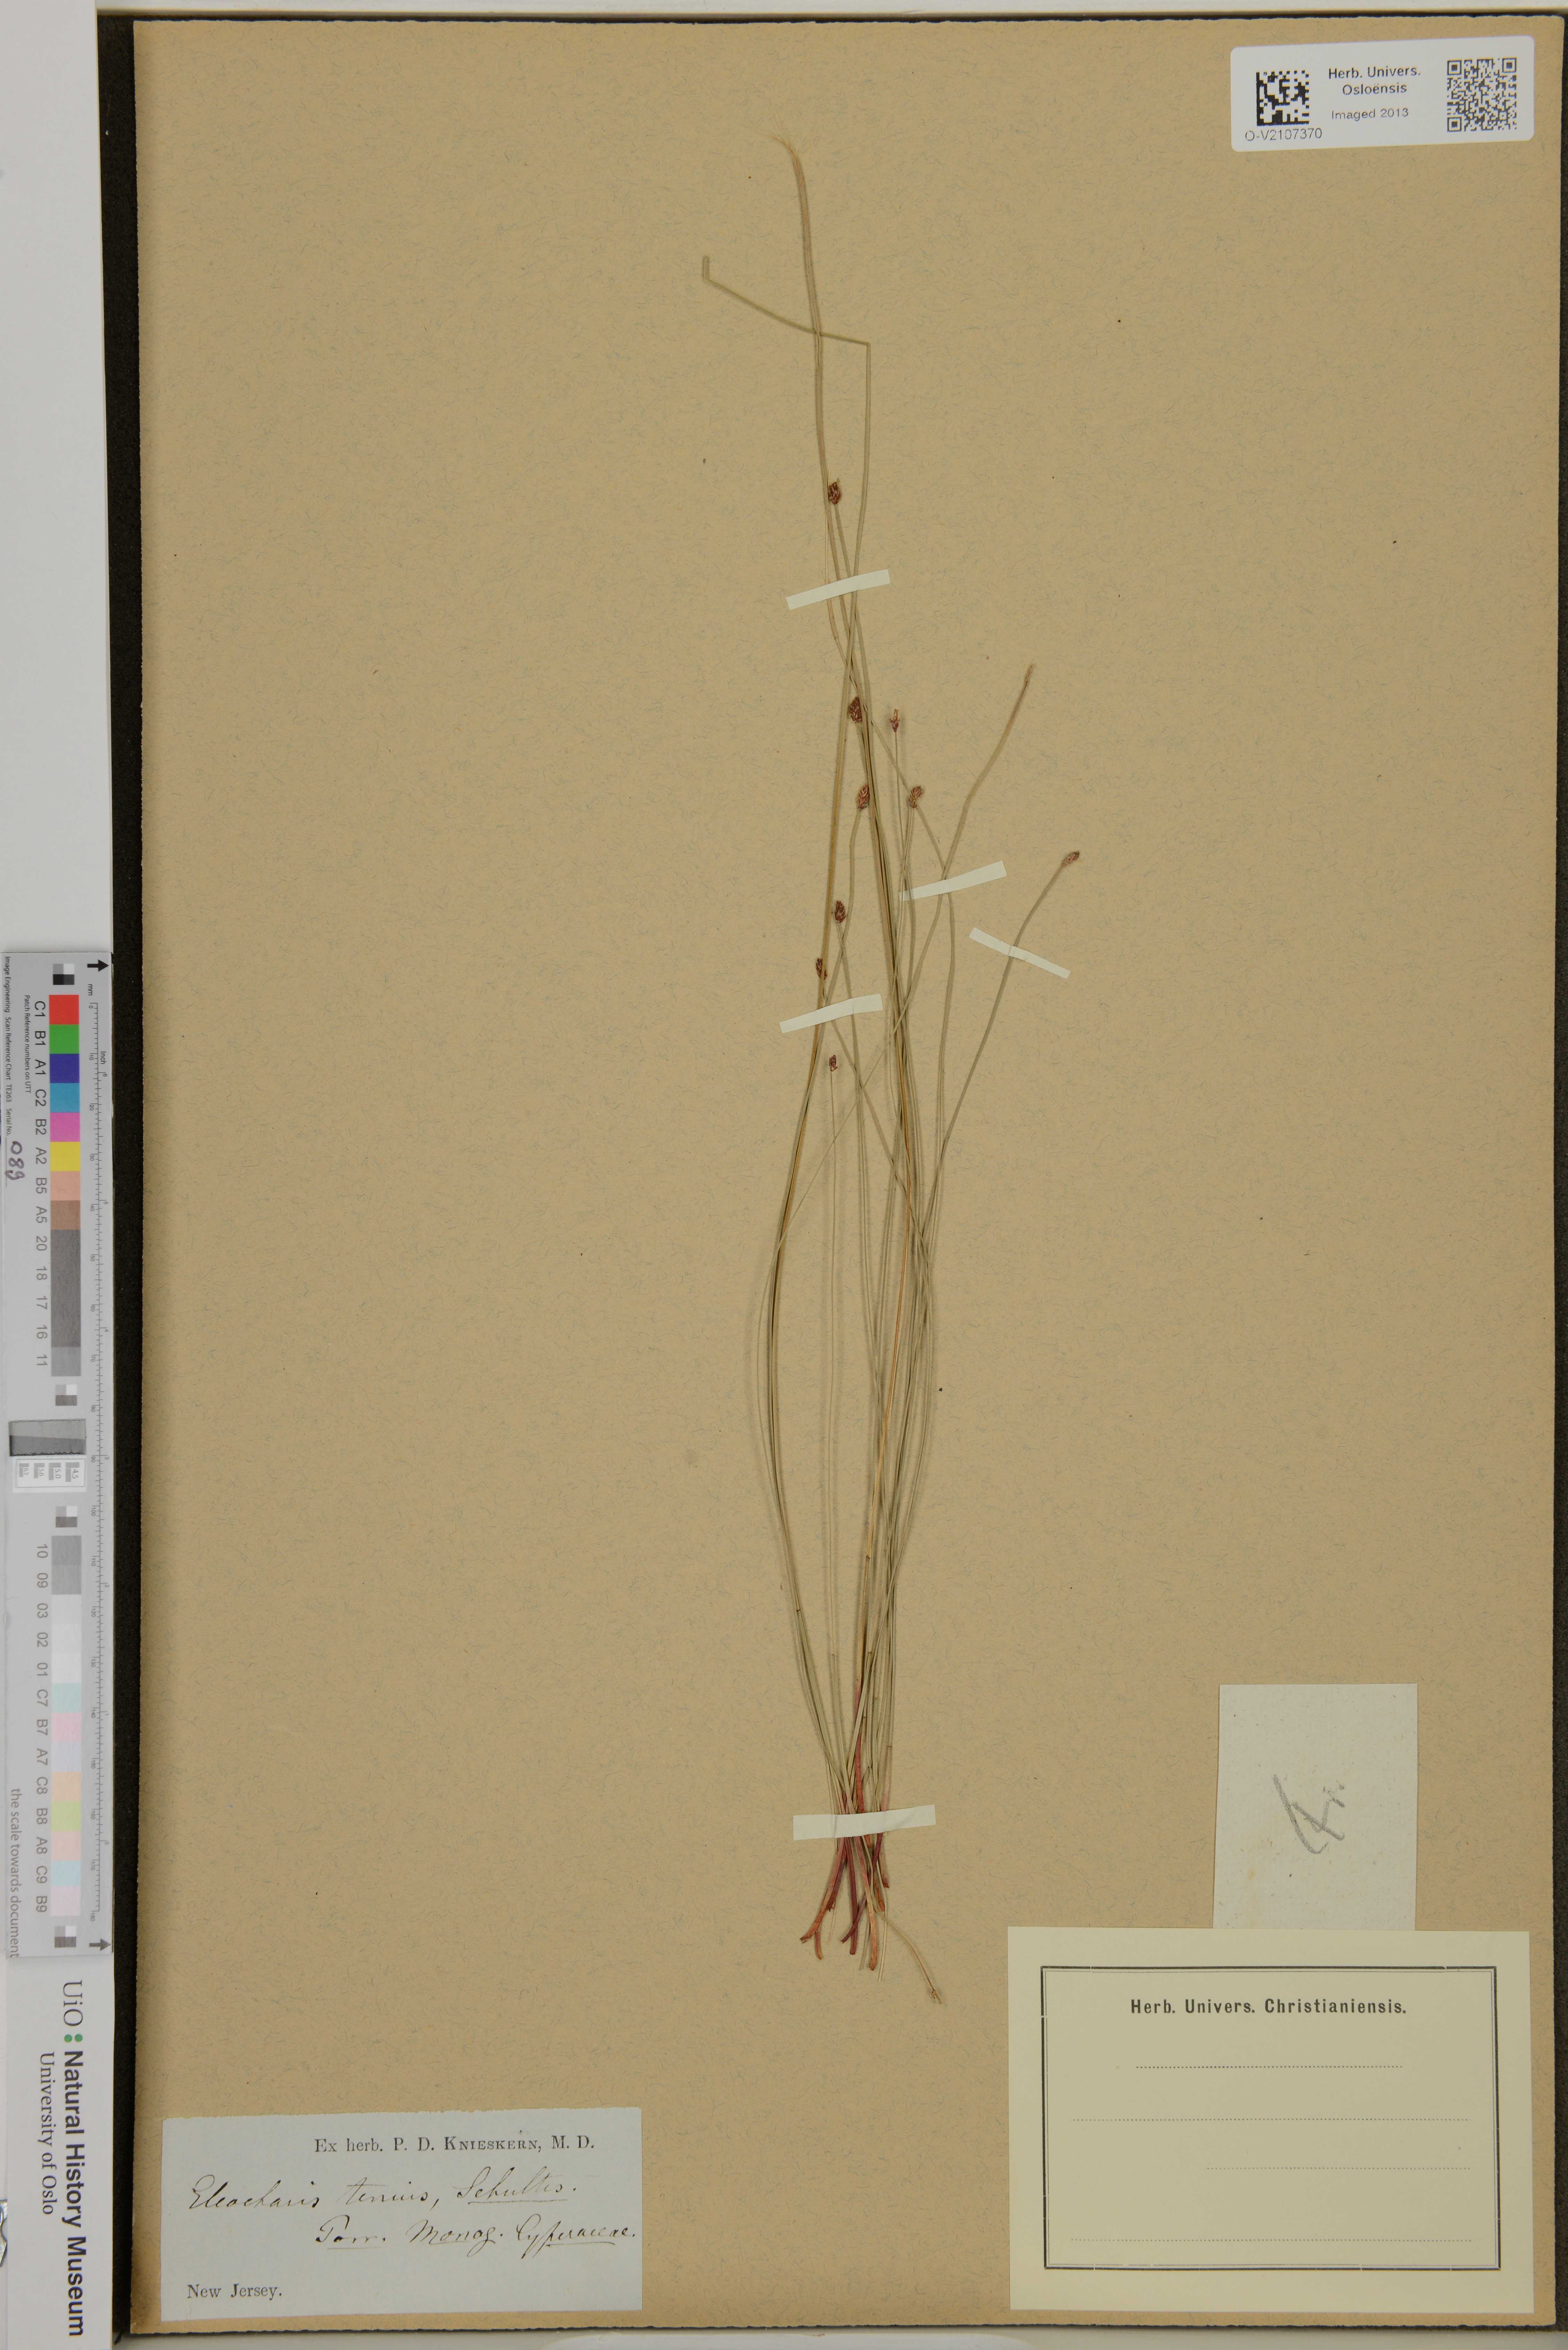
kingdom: Plantae
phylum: Tracheophyta
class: Liliopsida
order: Poales
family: Cyperaceae
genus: Eleocharis
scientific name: Eleocharis tenuis
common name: Dog's hair
